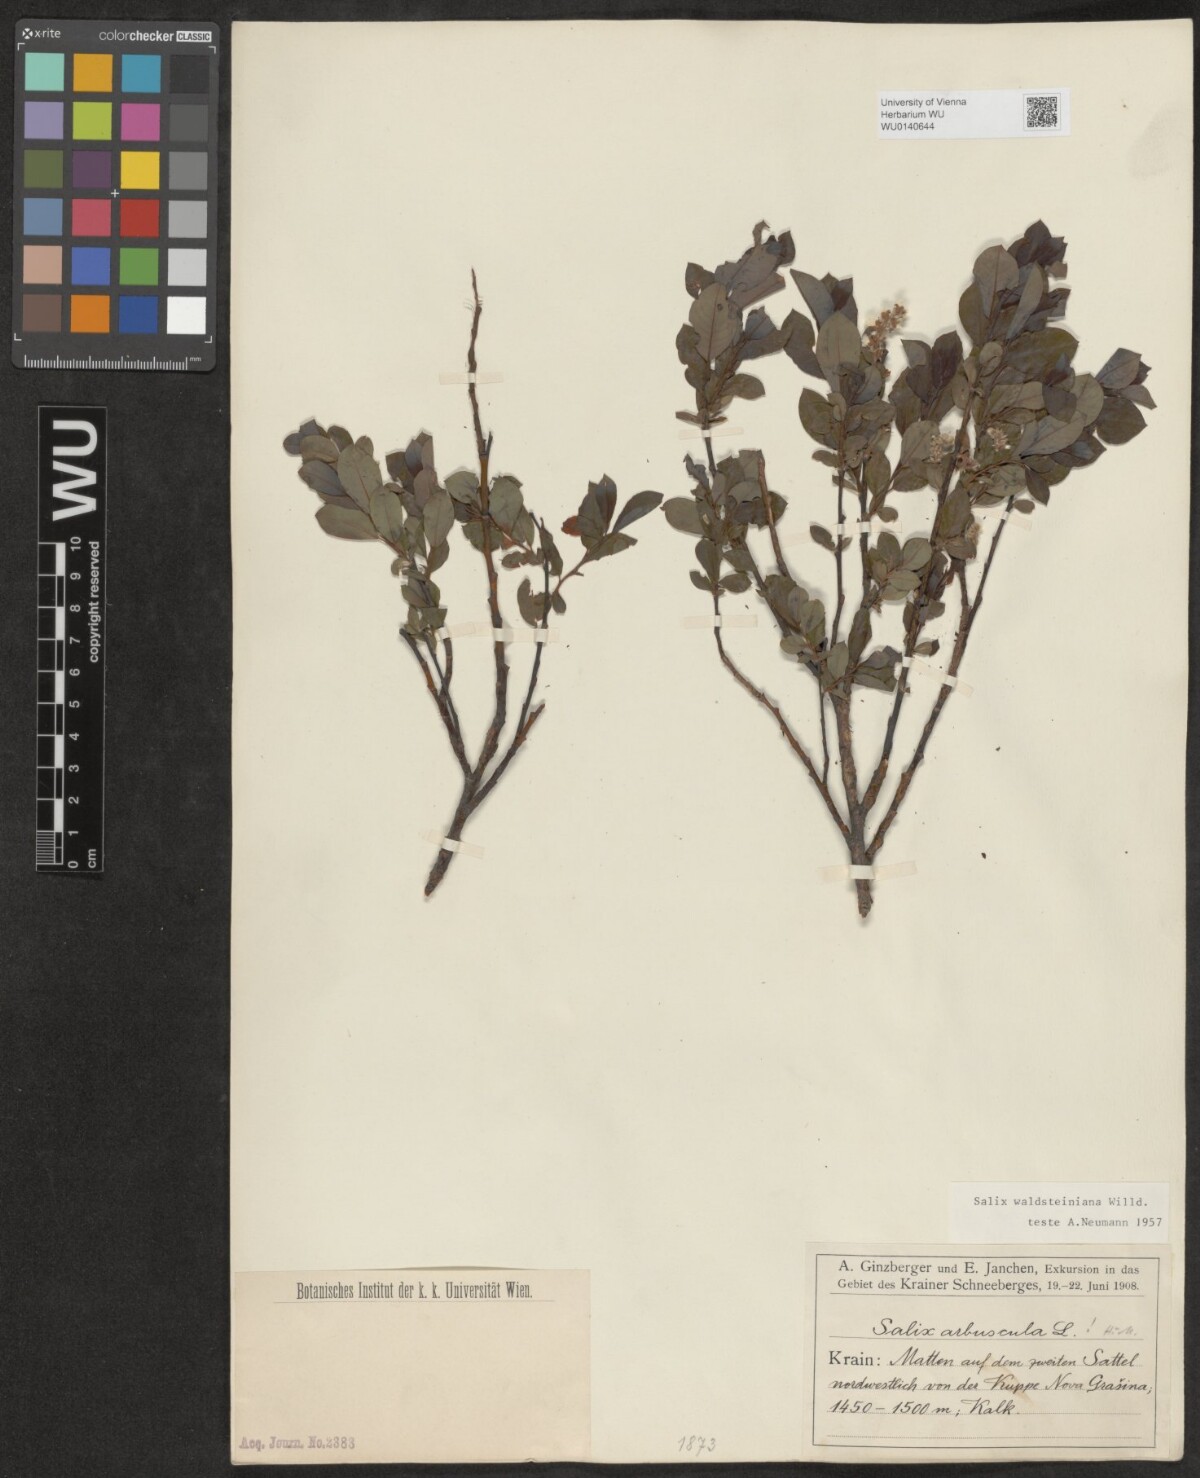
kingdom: Plantae
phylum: Tracheophyta
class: Magnoliopsida
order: Malpighiales
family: Salicaceae
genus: Salix
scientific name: Salix waldsteiniana
